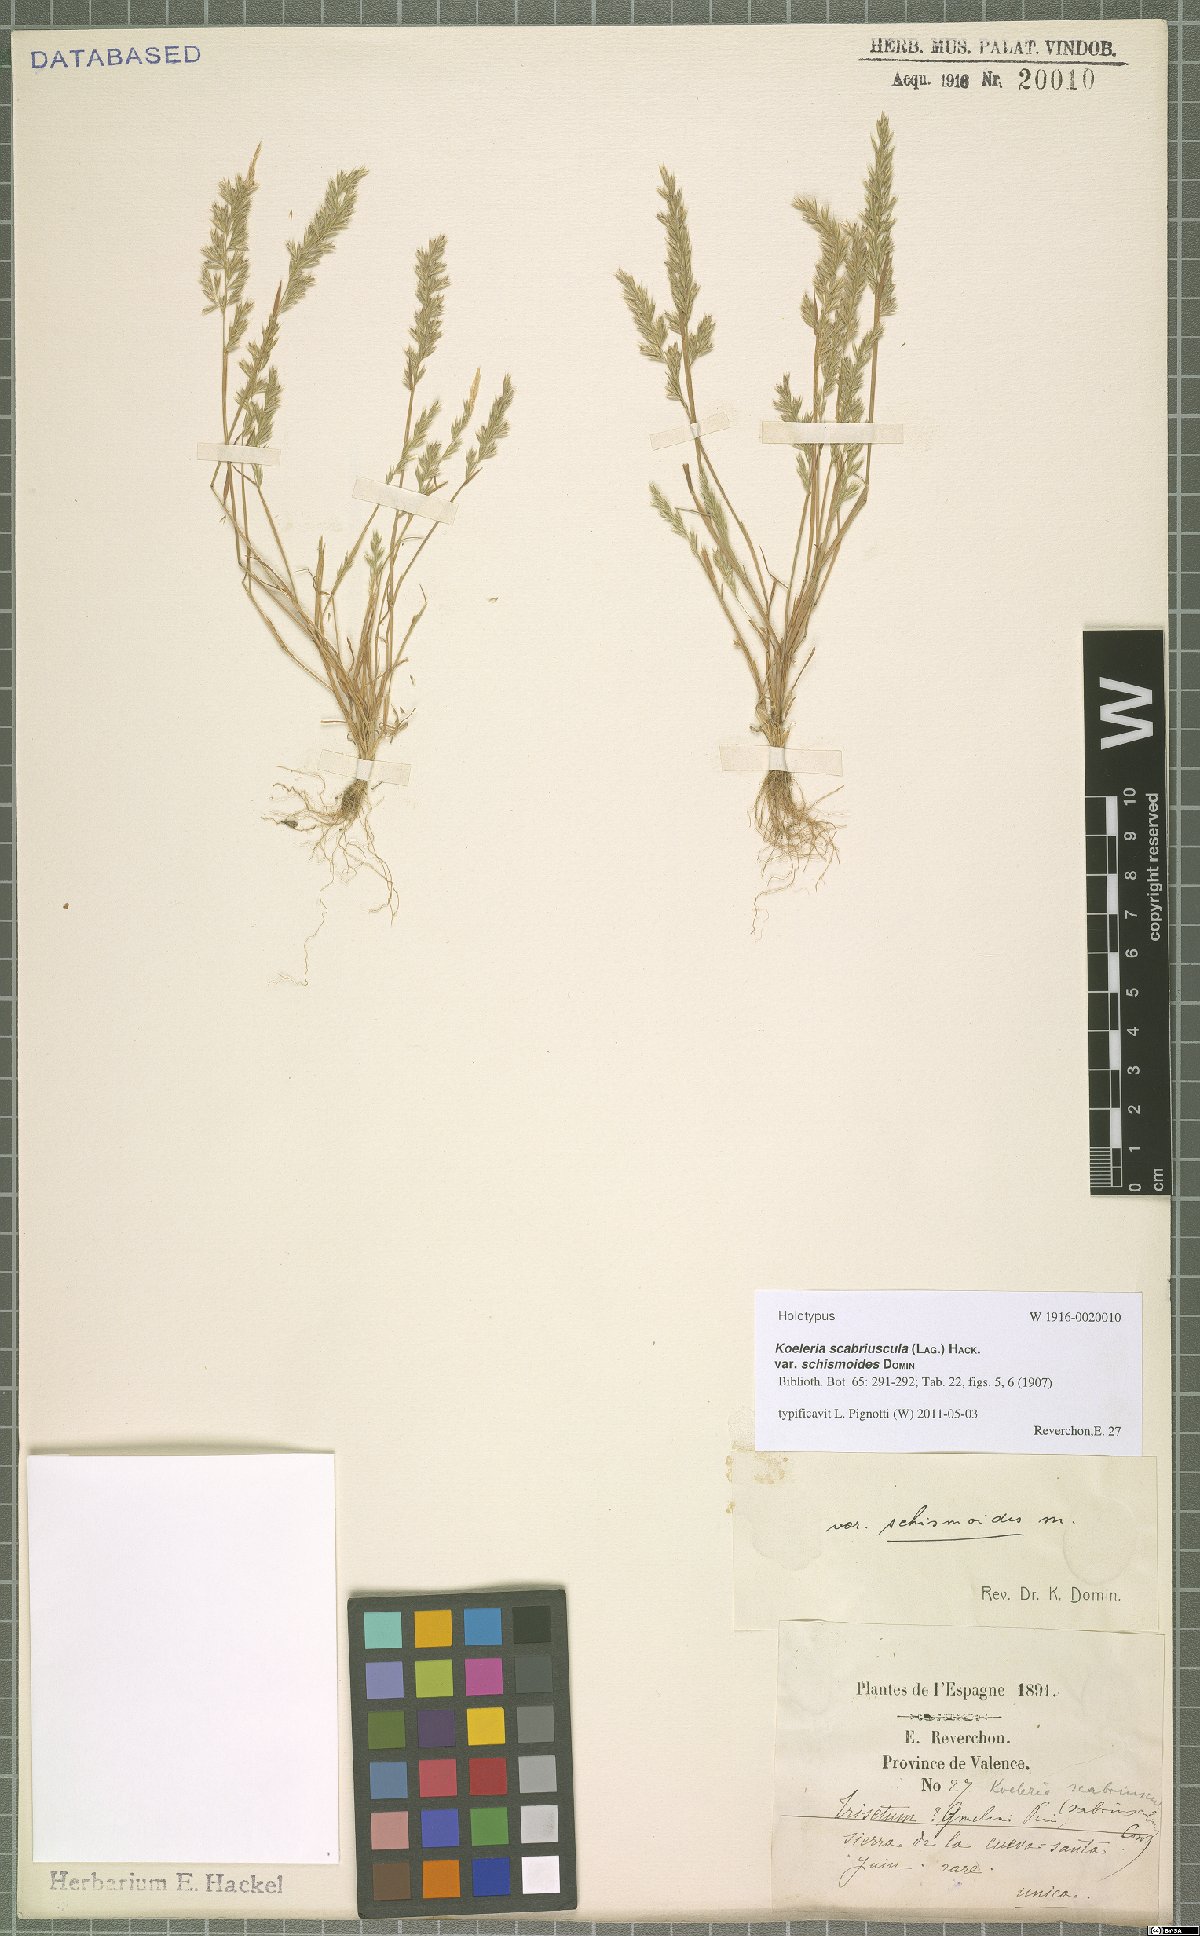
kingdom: Plantae
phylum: Tracheophyta
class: Liliopsida
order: Poales
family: Poaceae
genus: Trisetaria
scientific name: Trisetaria scabriuscula
